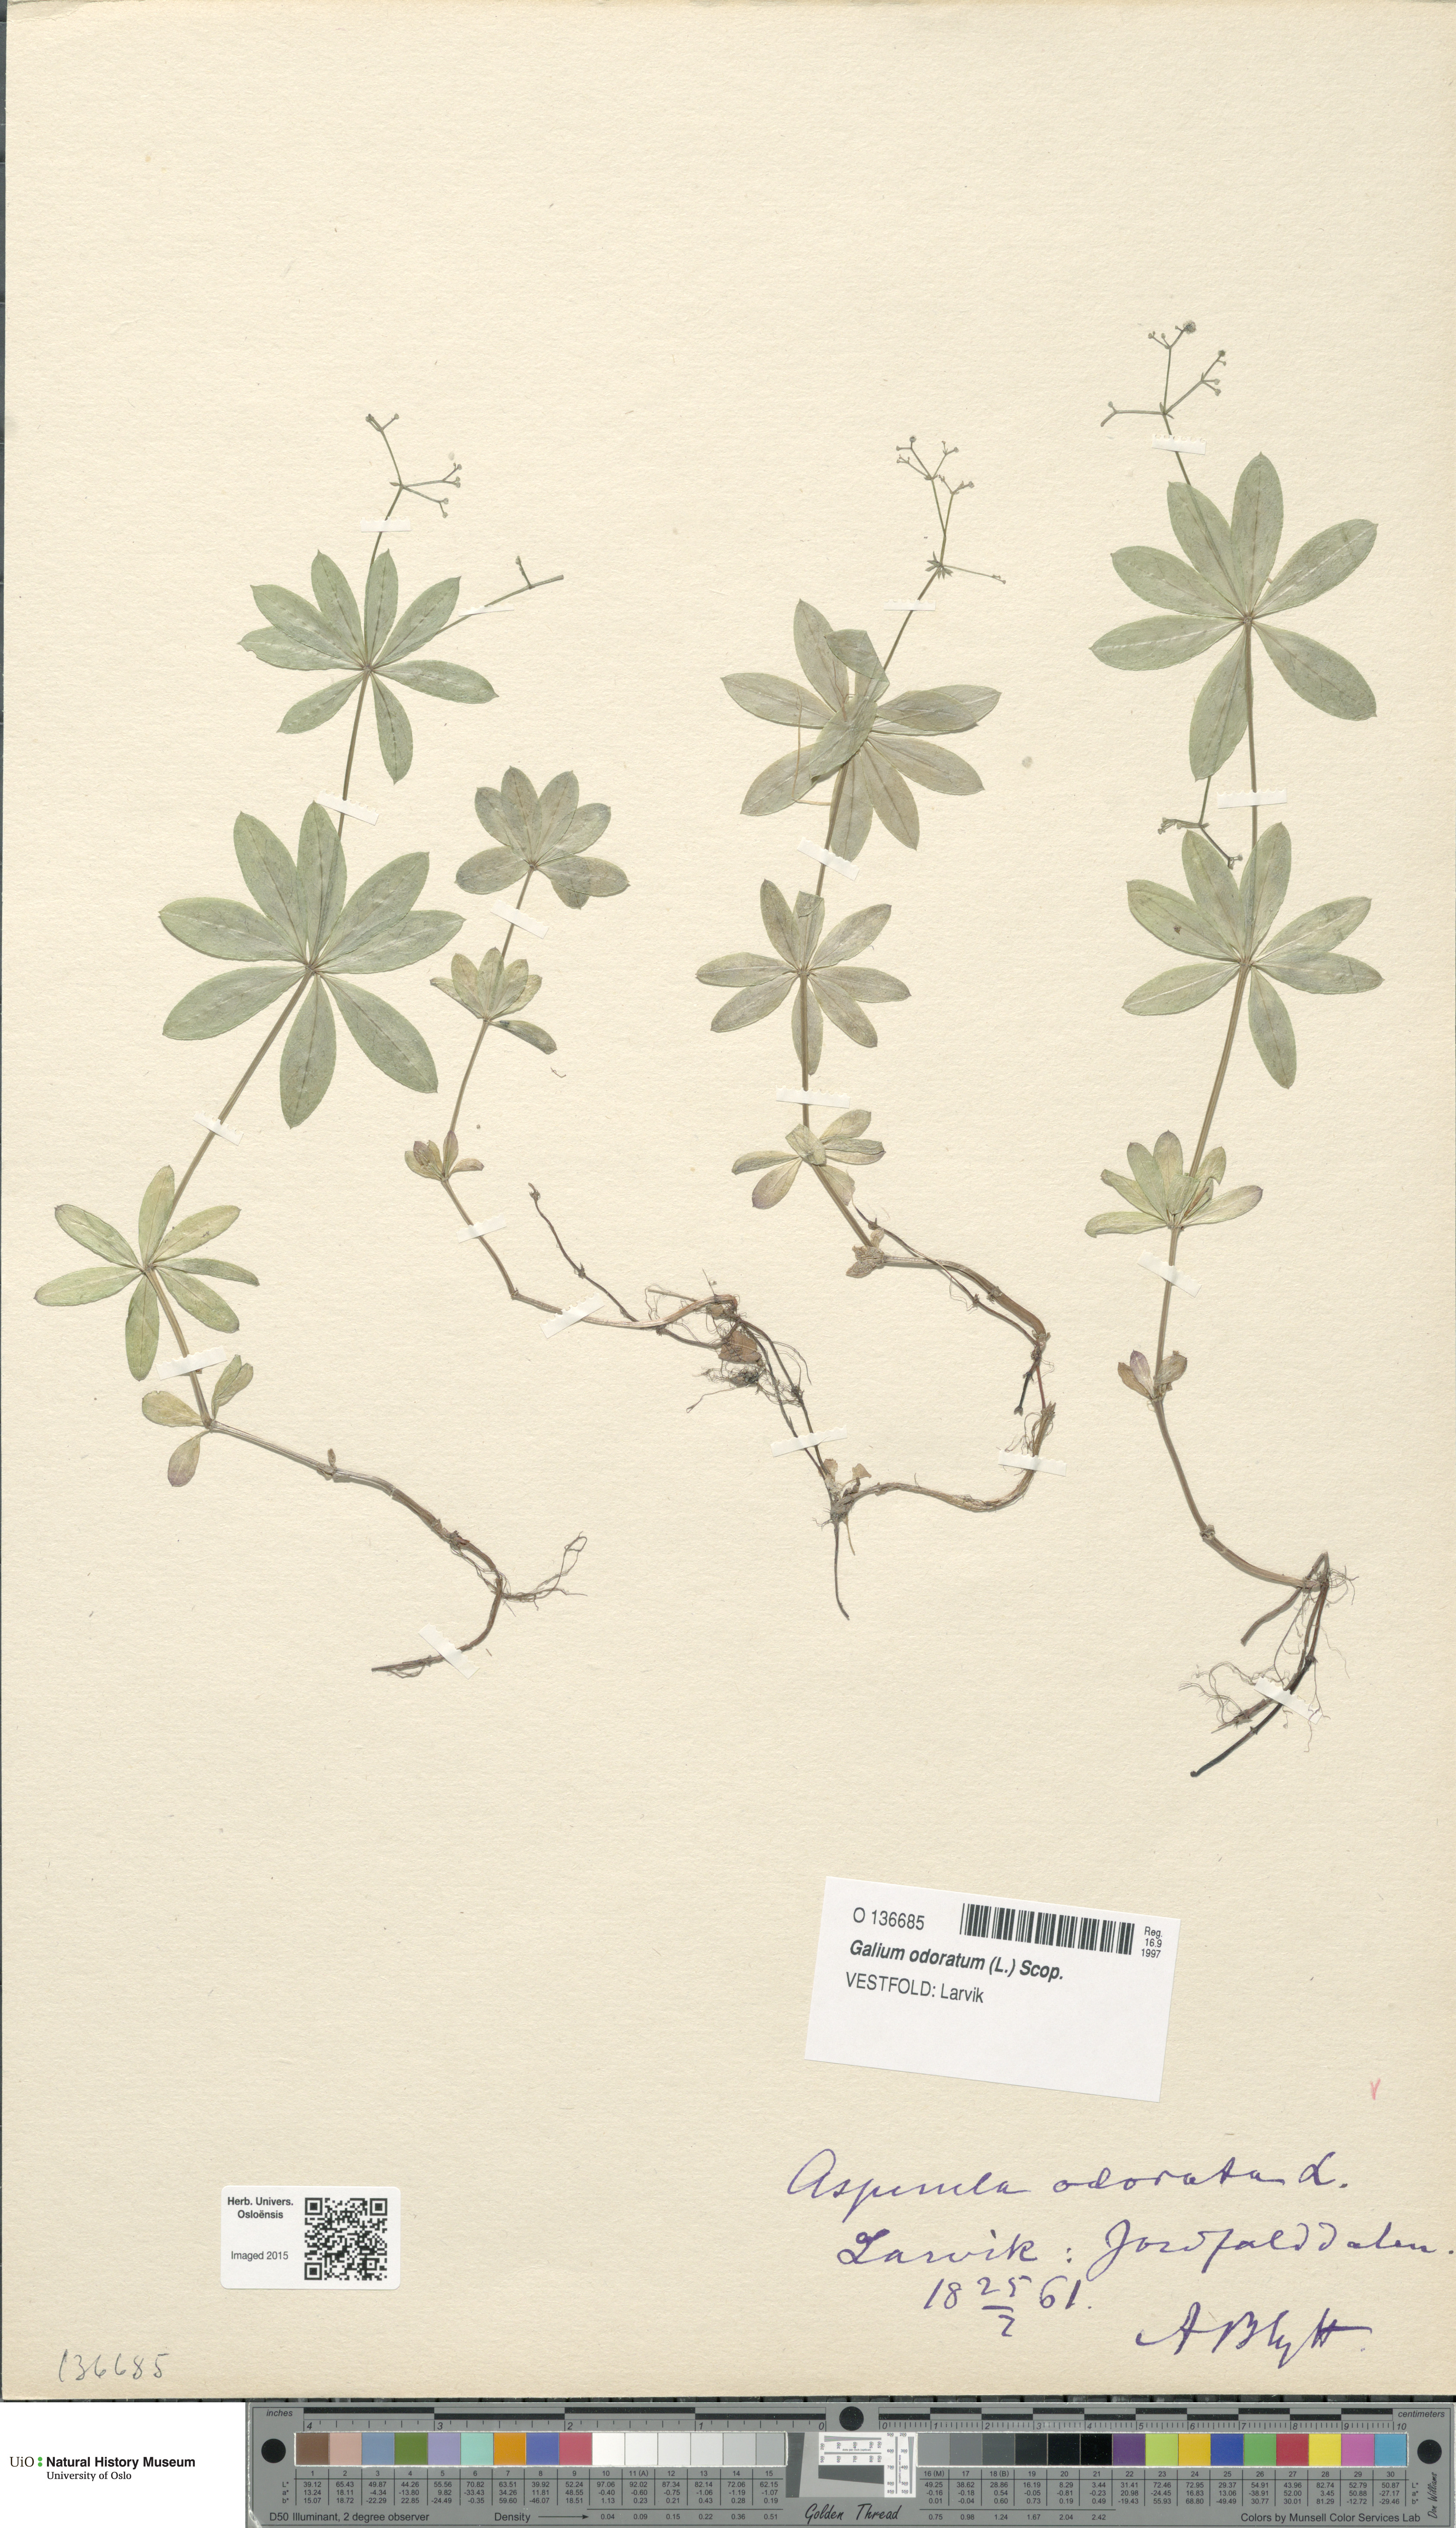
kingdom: Plantae
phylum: Tracheophyta
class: Magnoliopsida
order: Gentianales
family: Rubiaceae
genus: Galium
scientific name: Galium odoratum
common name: Sweet woodruff
